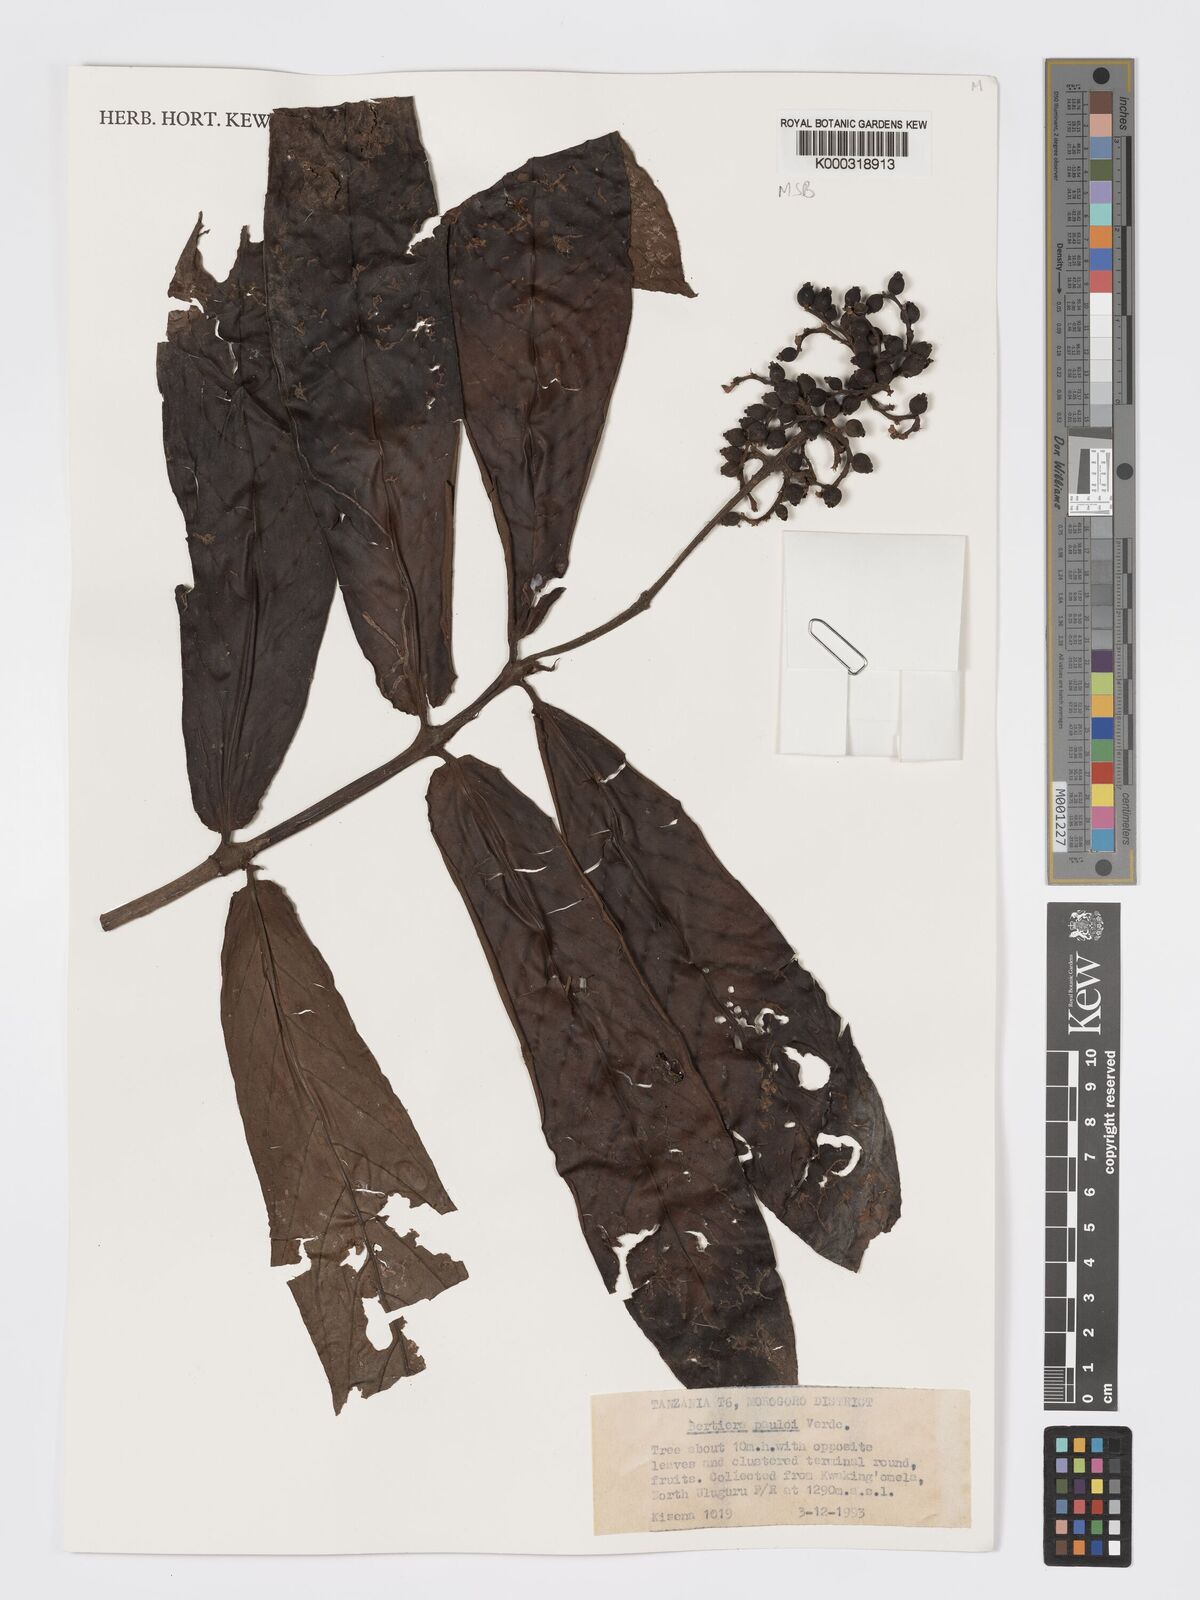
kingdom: Plantae
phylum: Tracheophyta
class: Magnoliopsida
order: Gentianales
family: Rubiaceae
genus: Bertiera
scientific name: Bertiera pauloi
